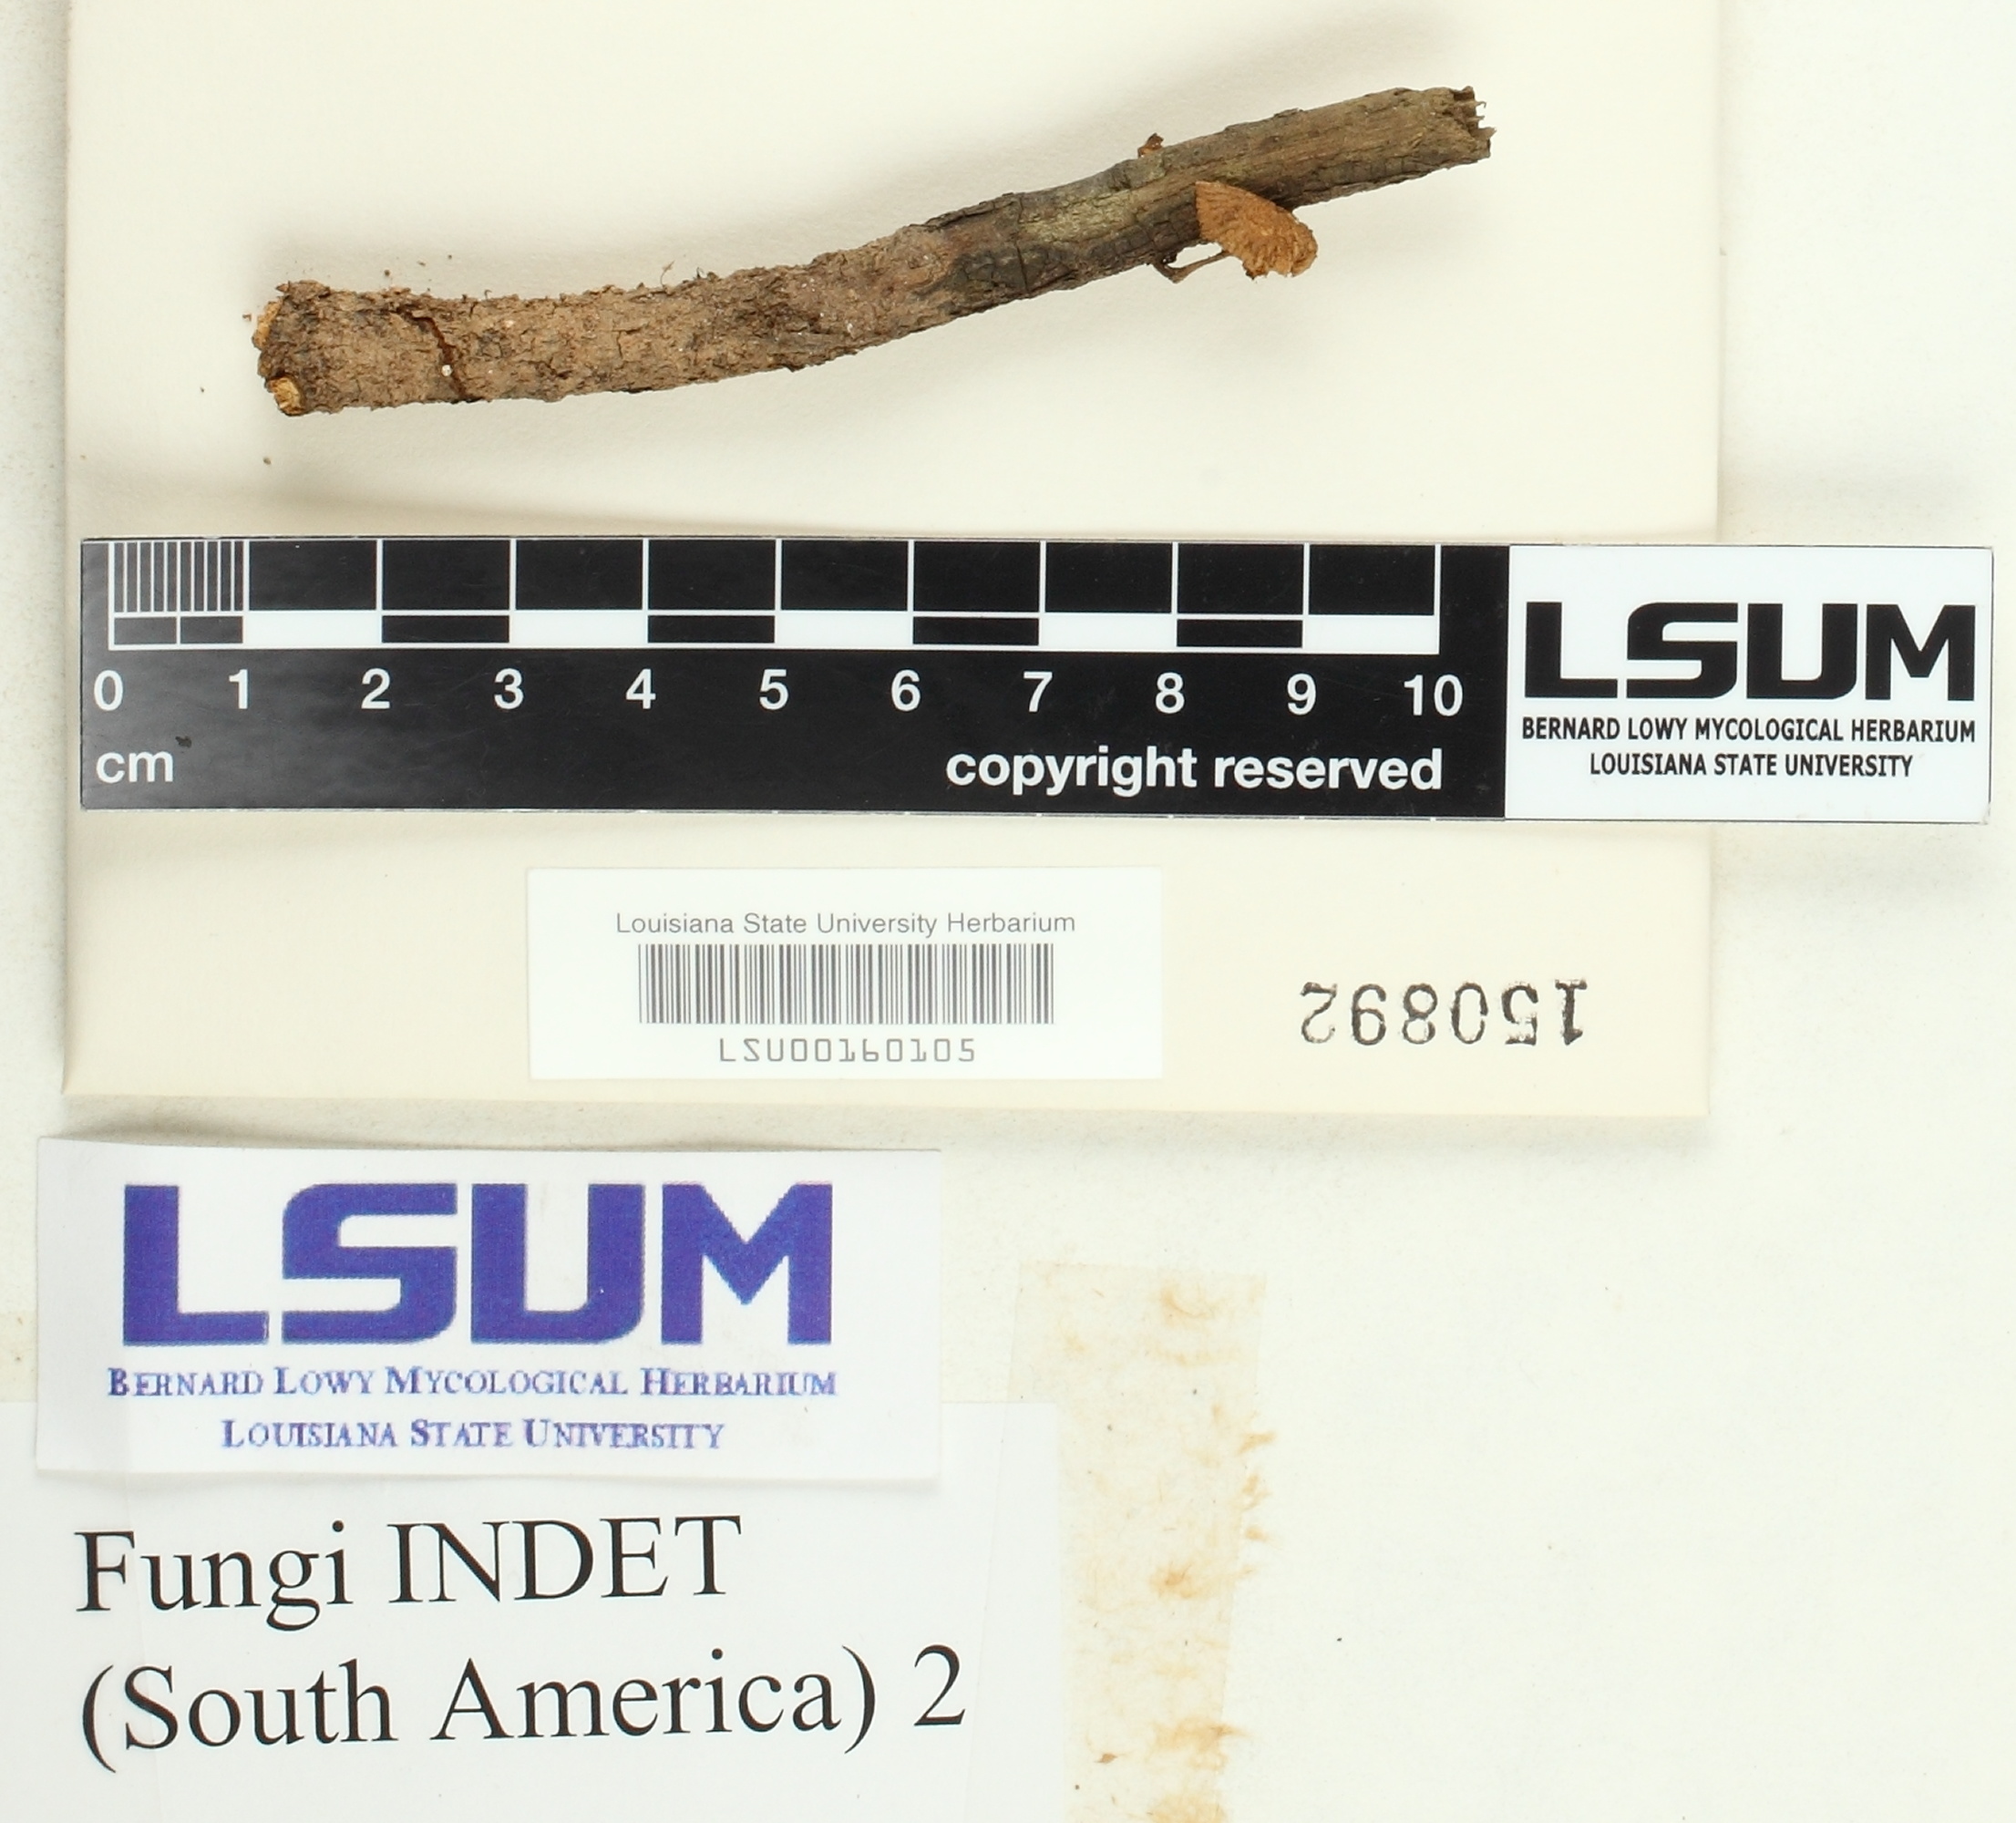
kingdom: Fungi
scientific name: Fungi
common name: Fungi
